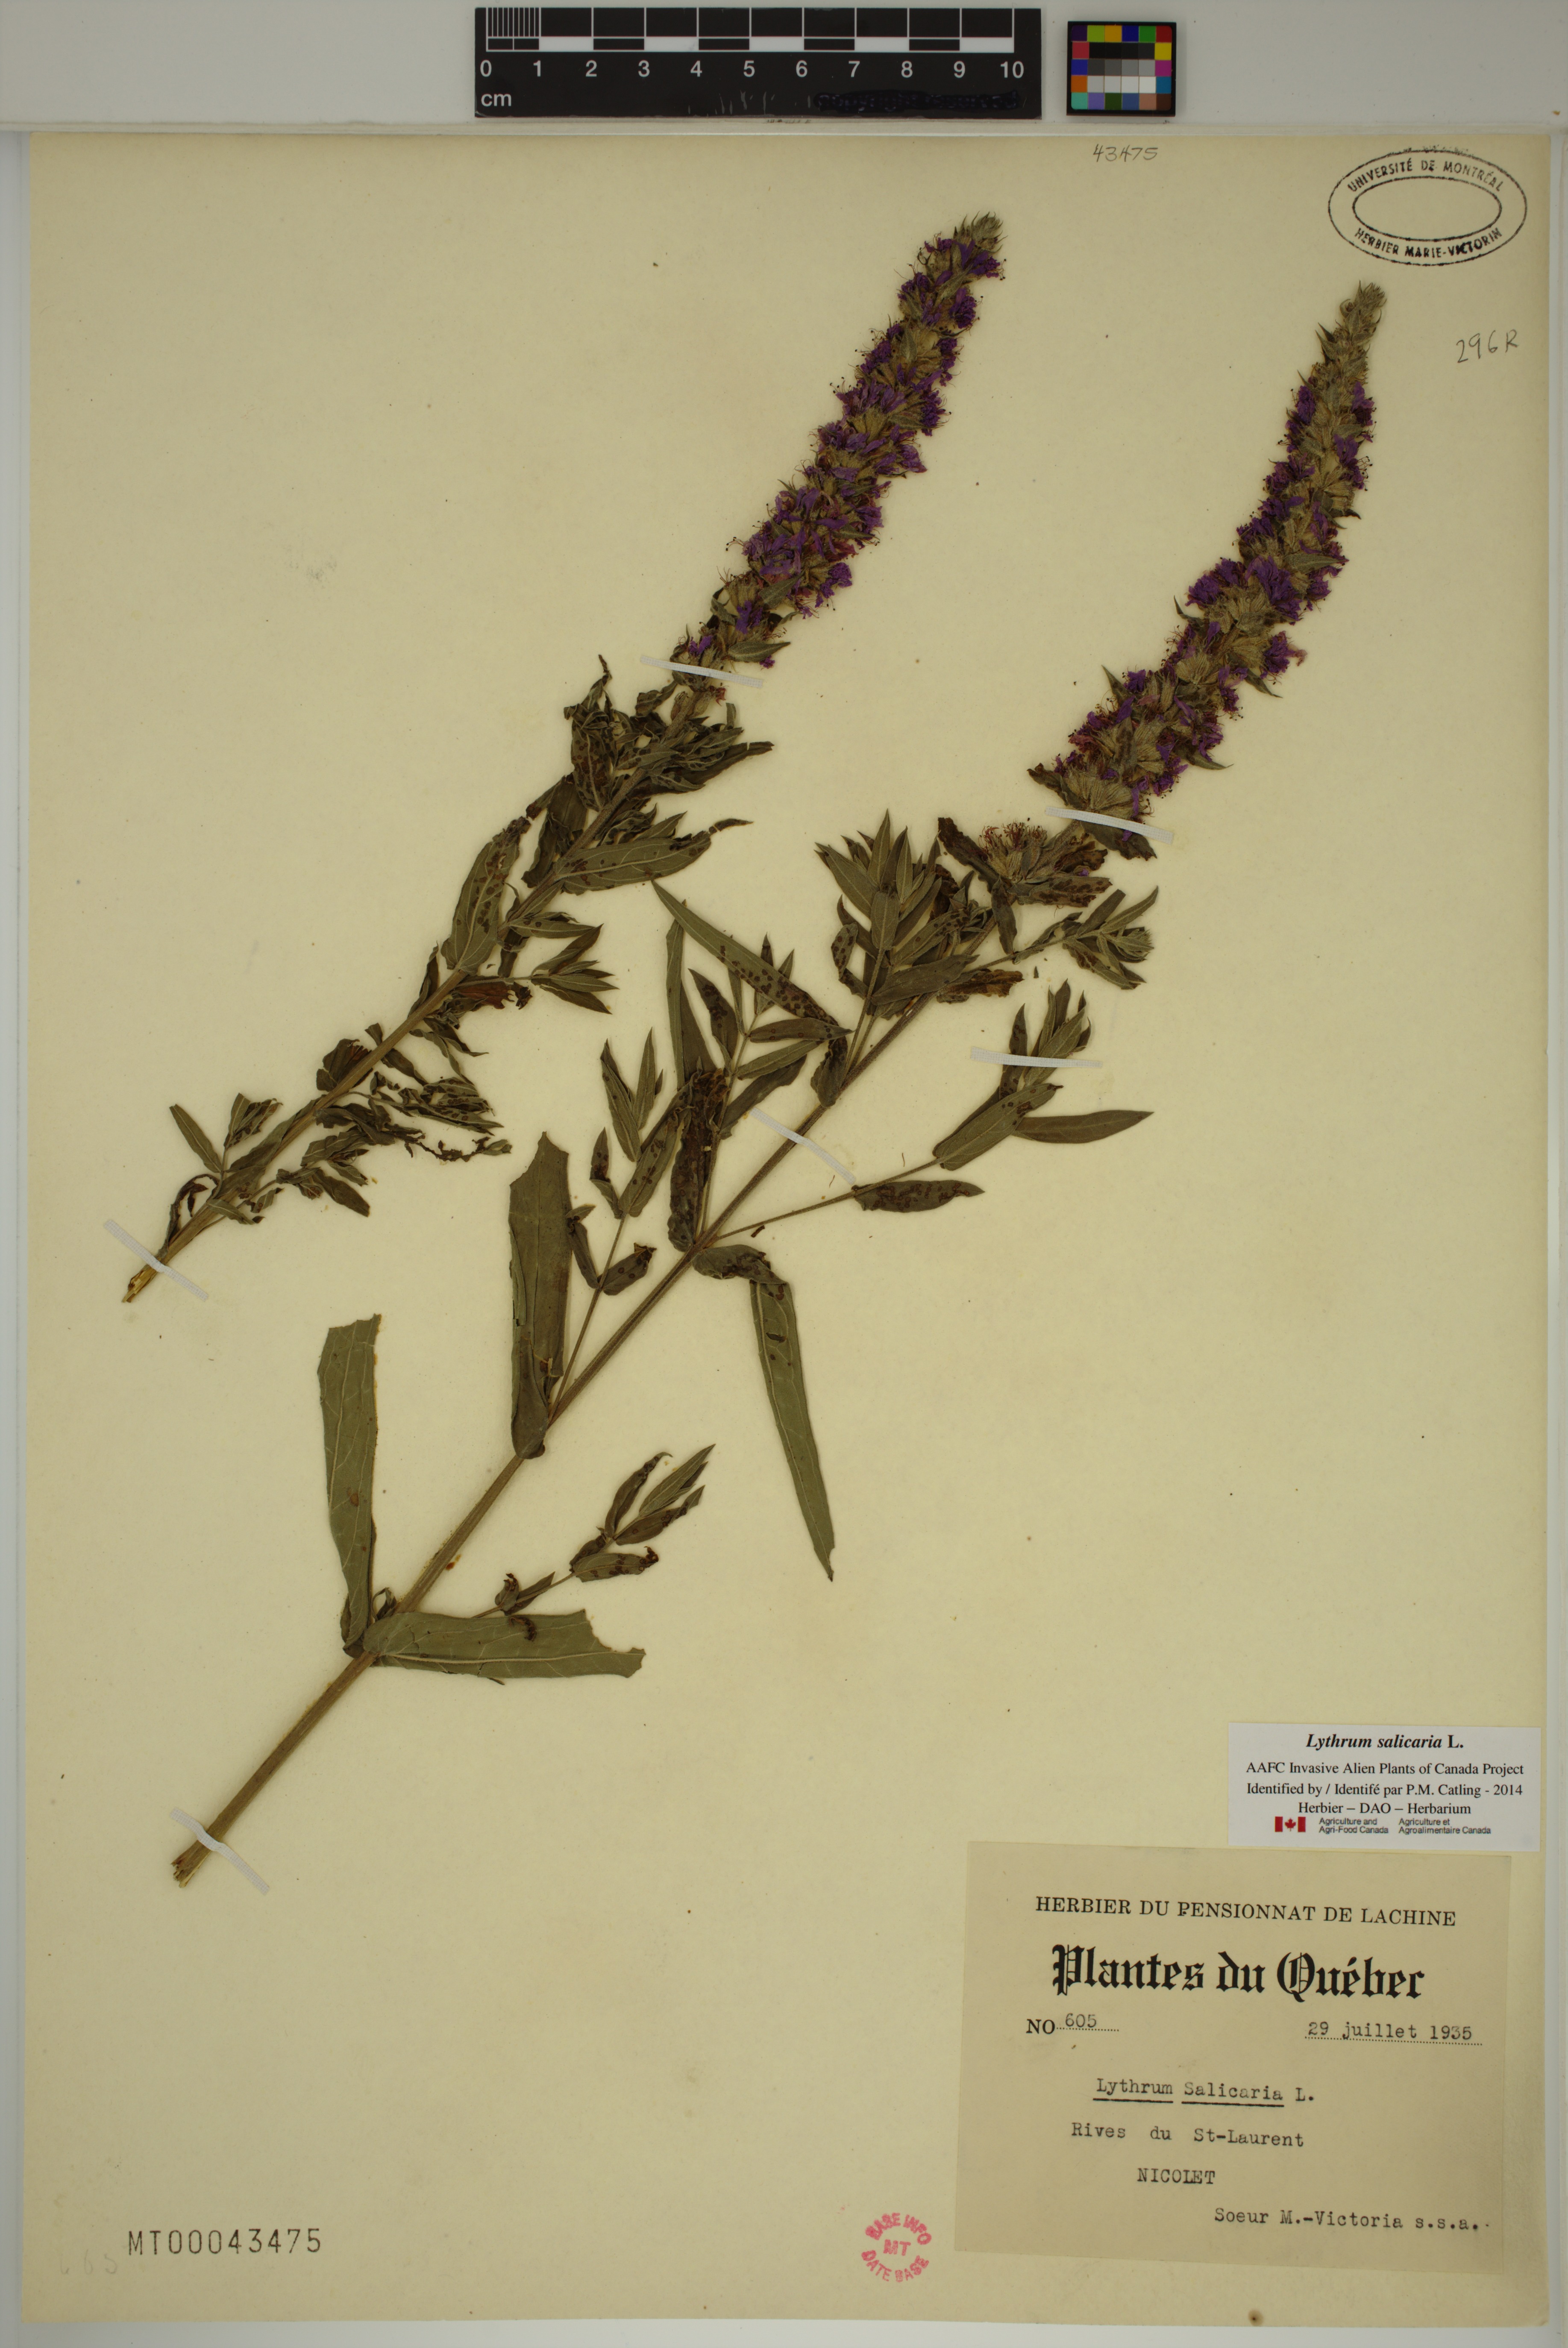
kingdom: Plantae
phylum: Tracheophyta
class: Magnoliopsida
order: Myrtales
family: Lythraceae
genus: Lythrum
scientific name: Lythrum salicaria
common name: Purple loosestrife
